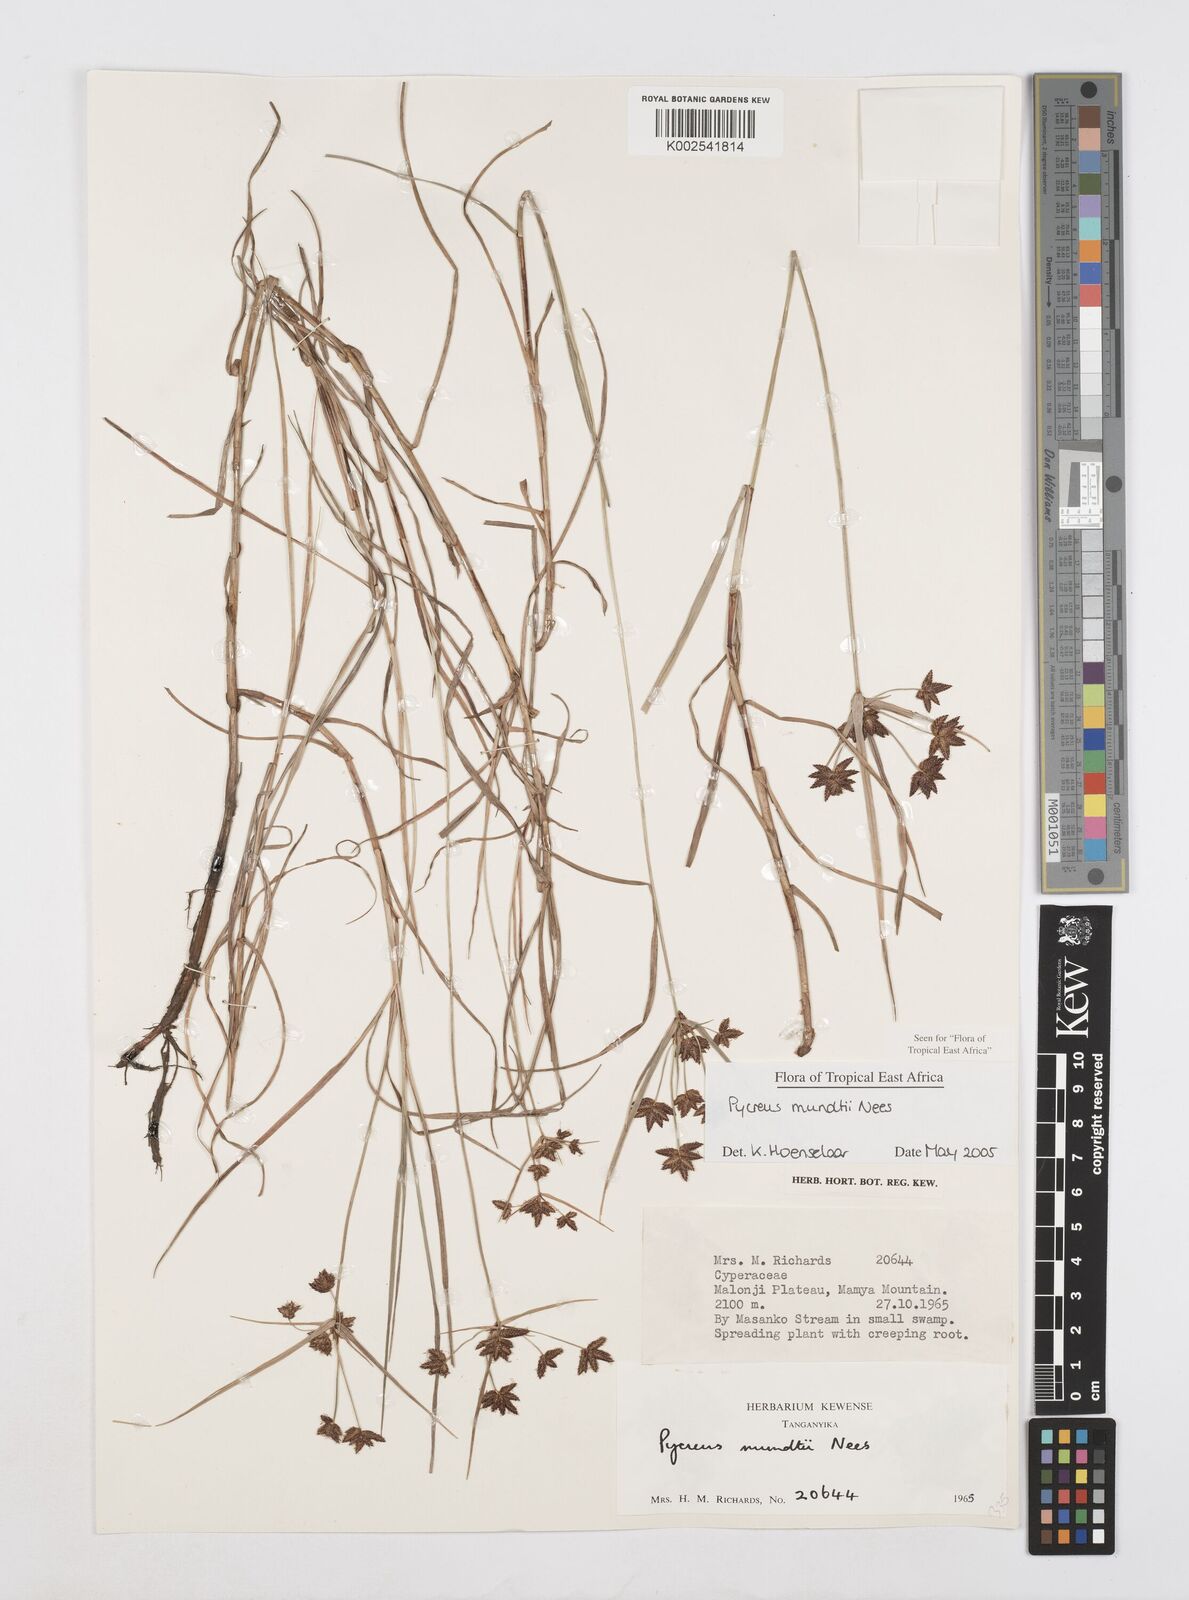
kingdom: Plantae
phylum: Tracheophyta
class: Liliopsida
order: Poales
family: Cyperaceae
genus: Cyperus
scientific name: Cyperus mundii
